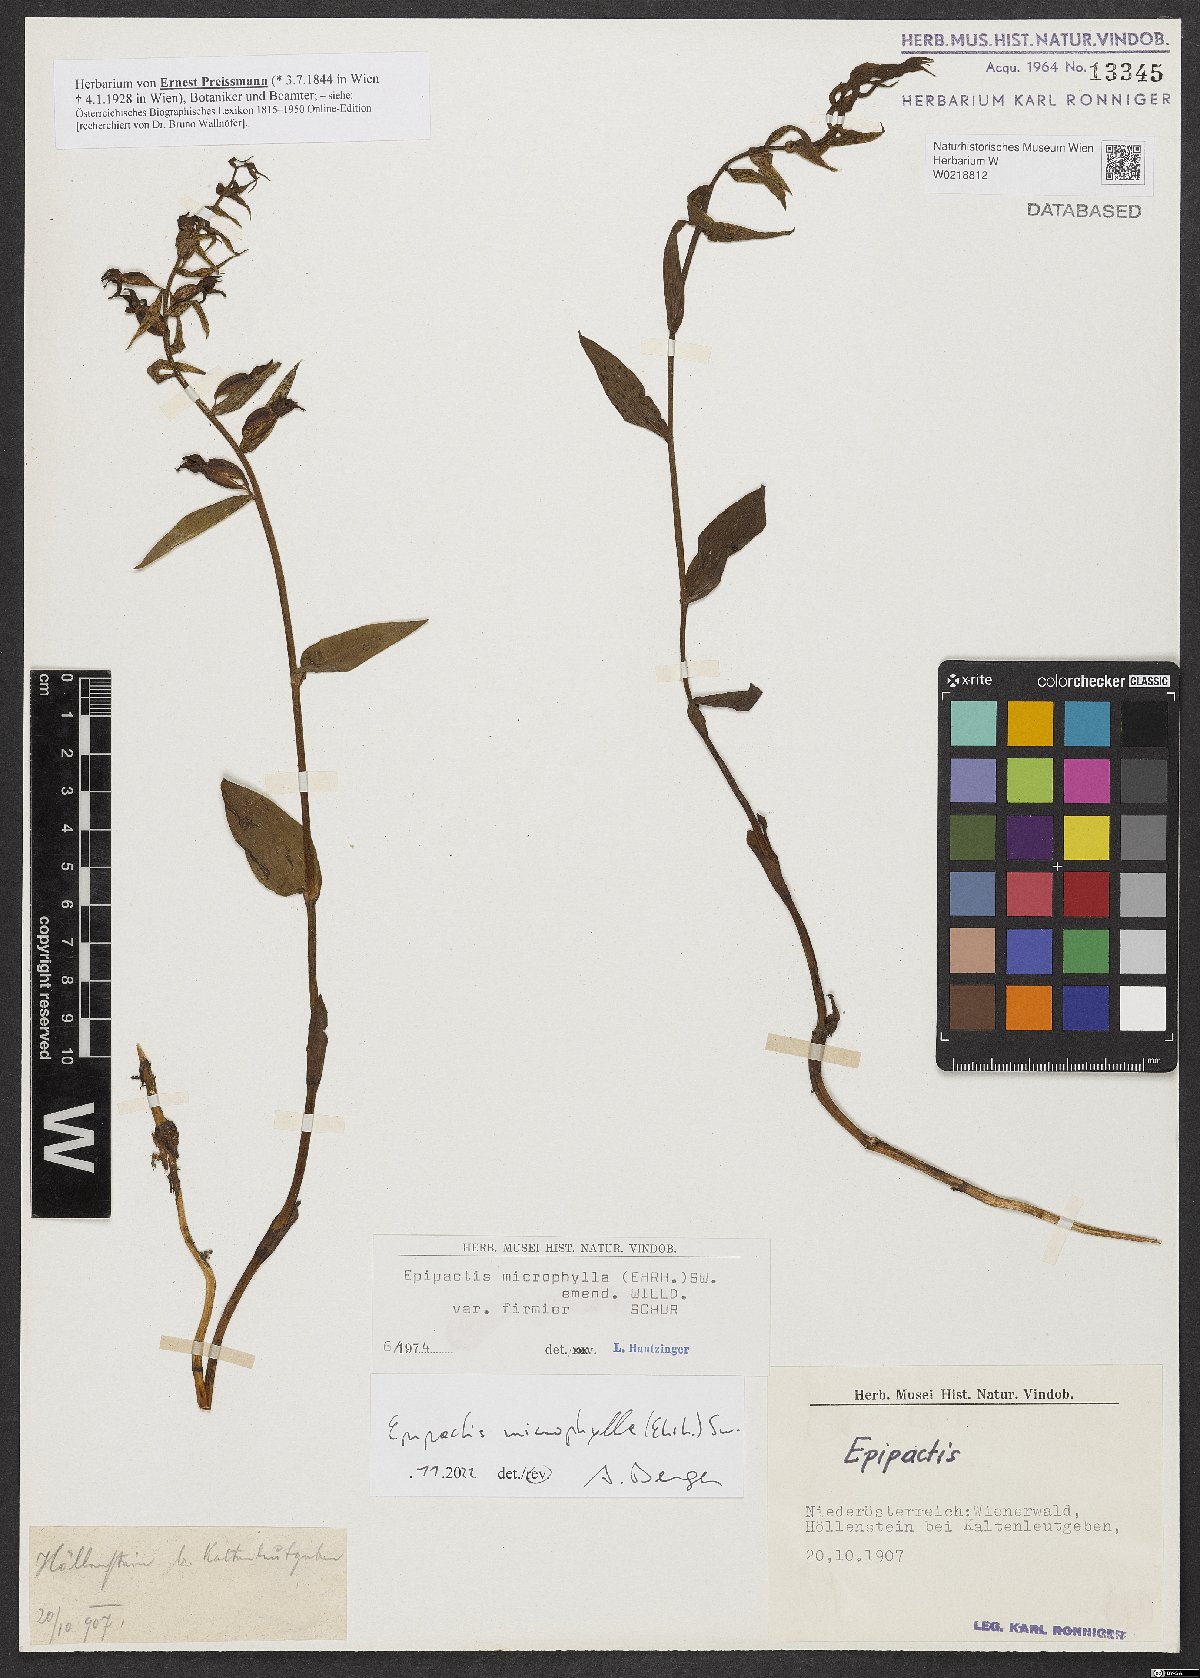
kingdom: Plantae
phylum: Tracheophyta
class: Liliopsida
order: Asparagales
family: Orchidaceae
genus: Epipactis
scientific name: Epipactis microphylla
